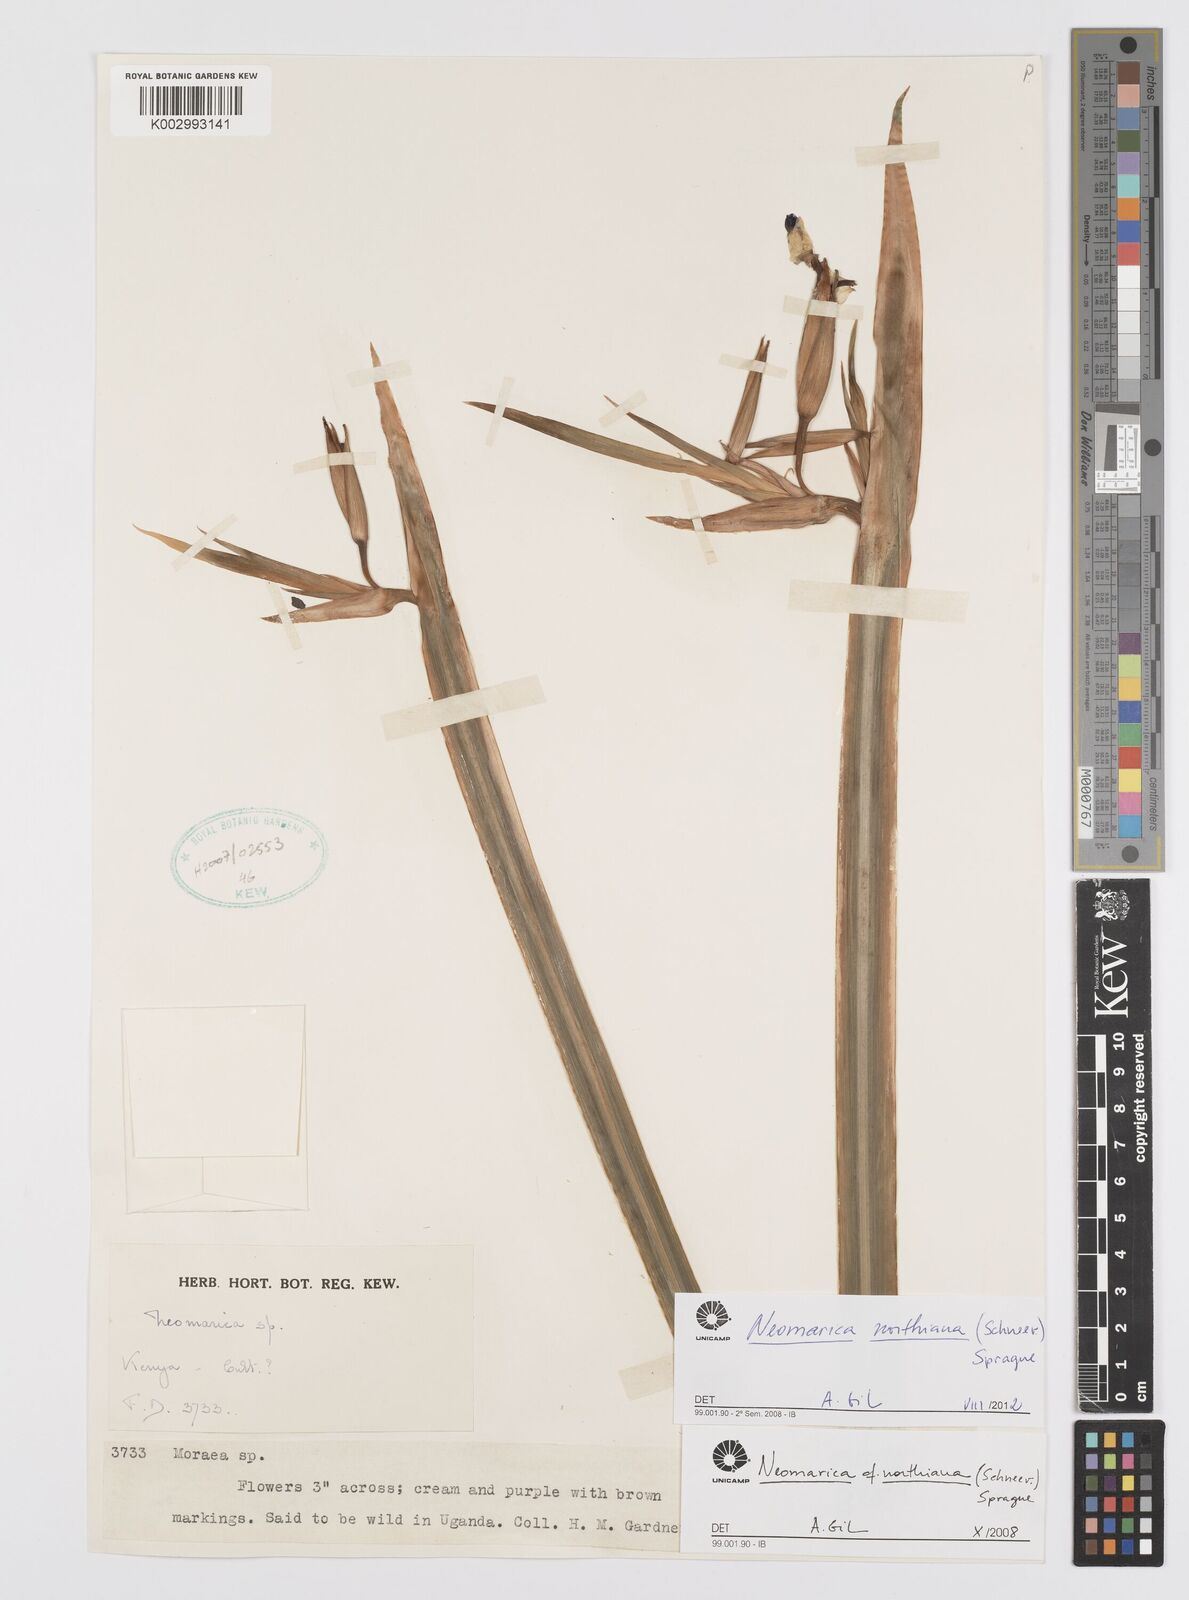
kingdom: Plantae
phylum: Tracheophyta
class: Liliopsida
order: Asparagales
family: Iridaceae
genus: Trimezia
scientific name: Trimezia northiana
